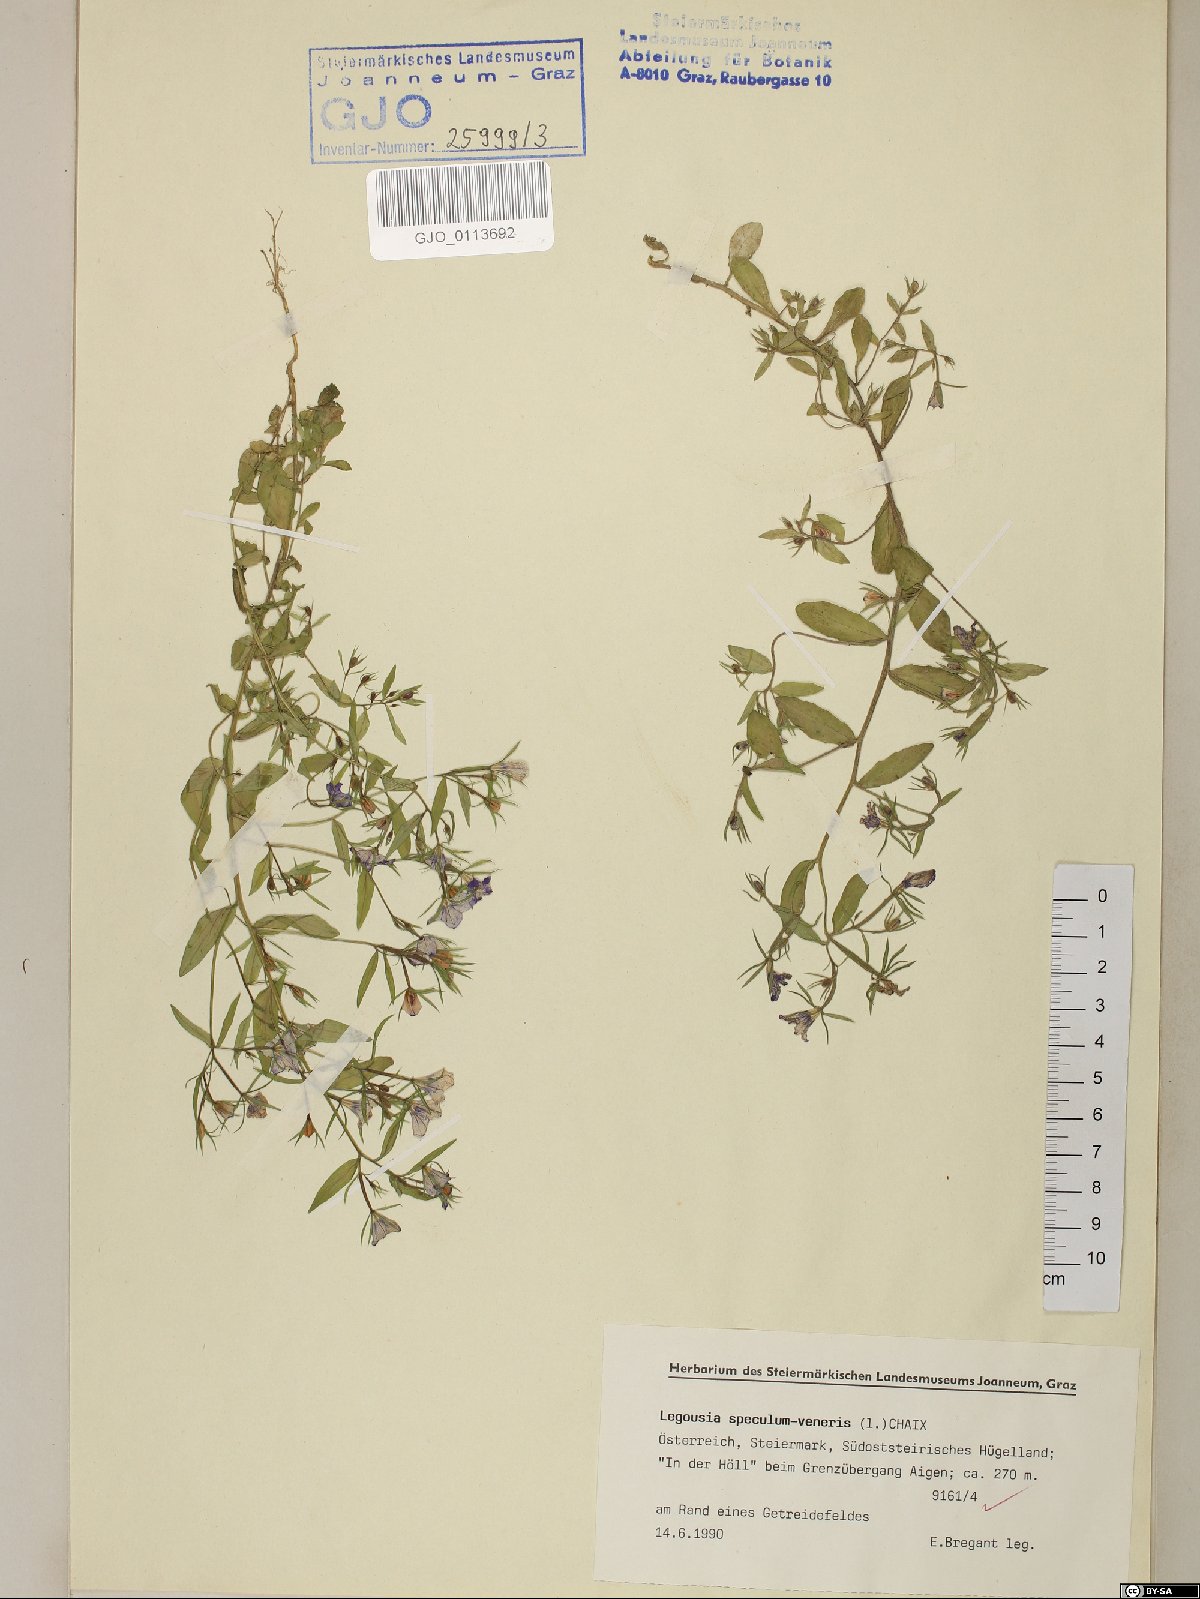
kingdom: Plantae
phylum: Tracheophyta
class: Magnoliopsida
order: Asterales
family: Campanulaceae
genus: Legousia
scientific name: Legousia speculum-veneris
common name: Large venus's-looking-glass
